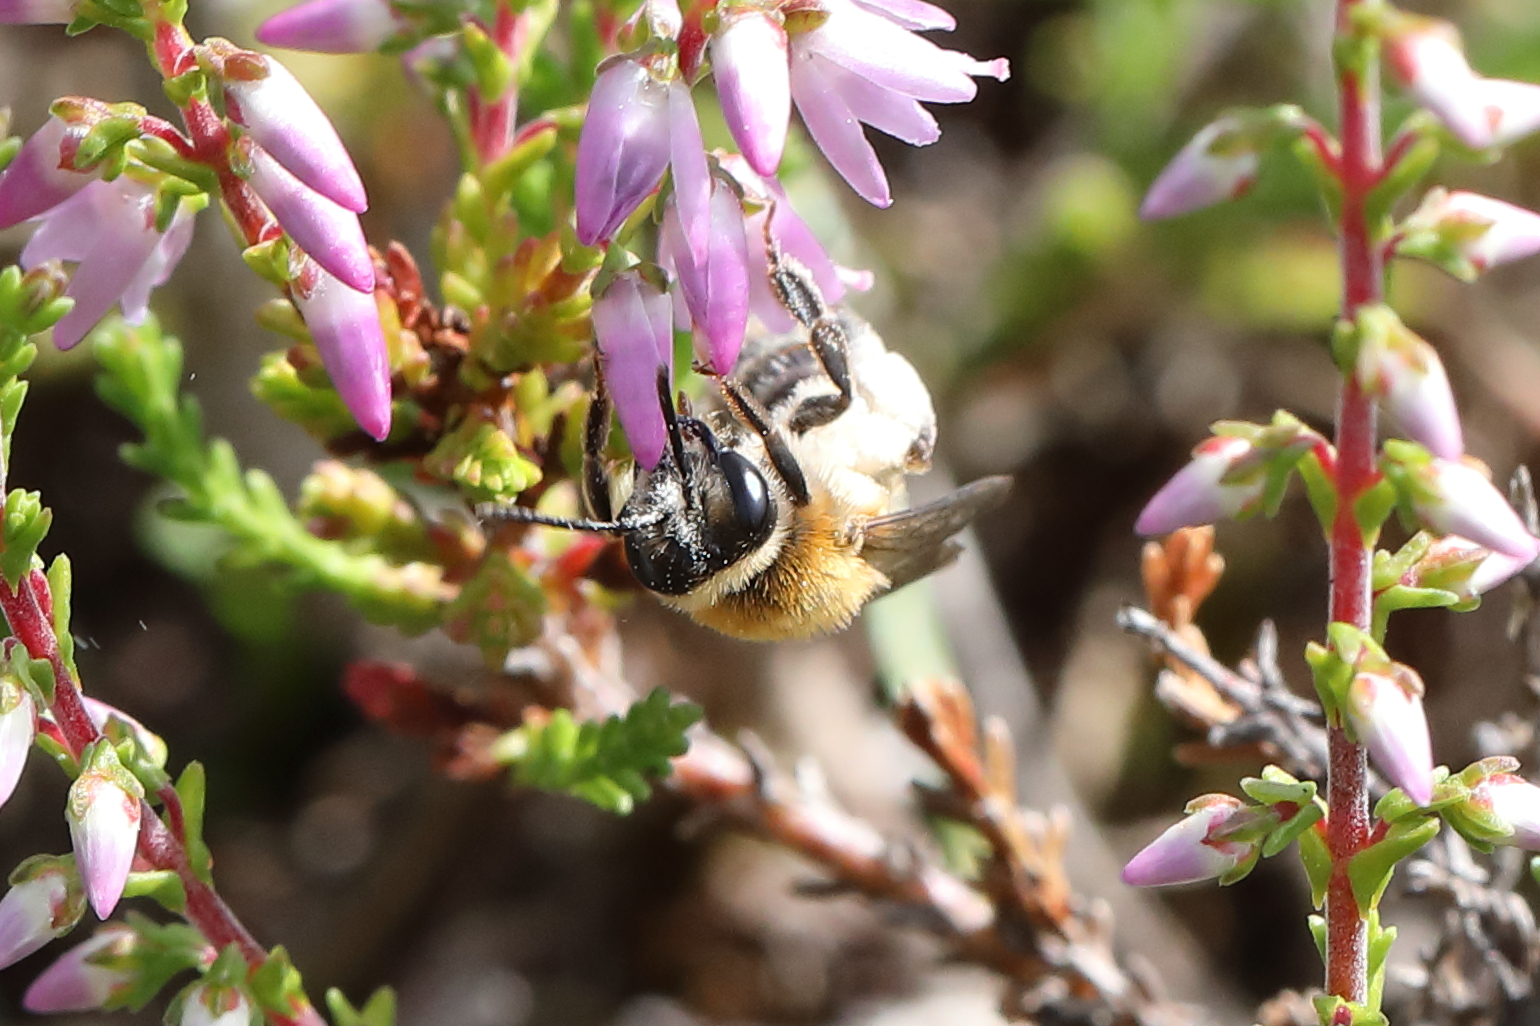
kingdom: Animalia
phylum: Arthropoda
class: Insecta
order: Hymenoptera
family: Andrenidae
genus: Andrena
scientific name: Andrena fuscipes
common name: Heather mining bee
